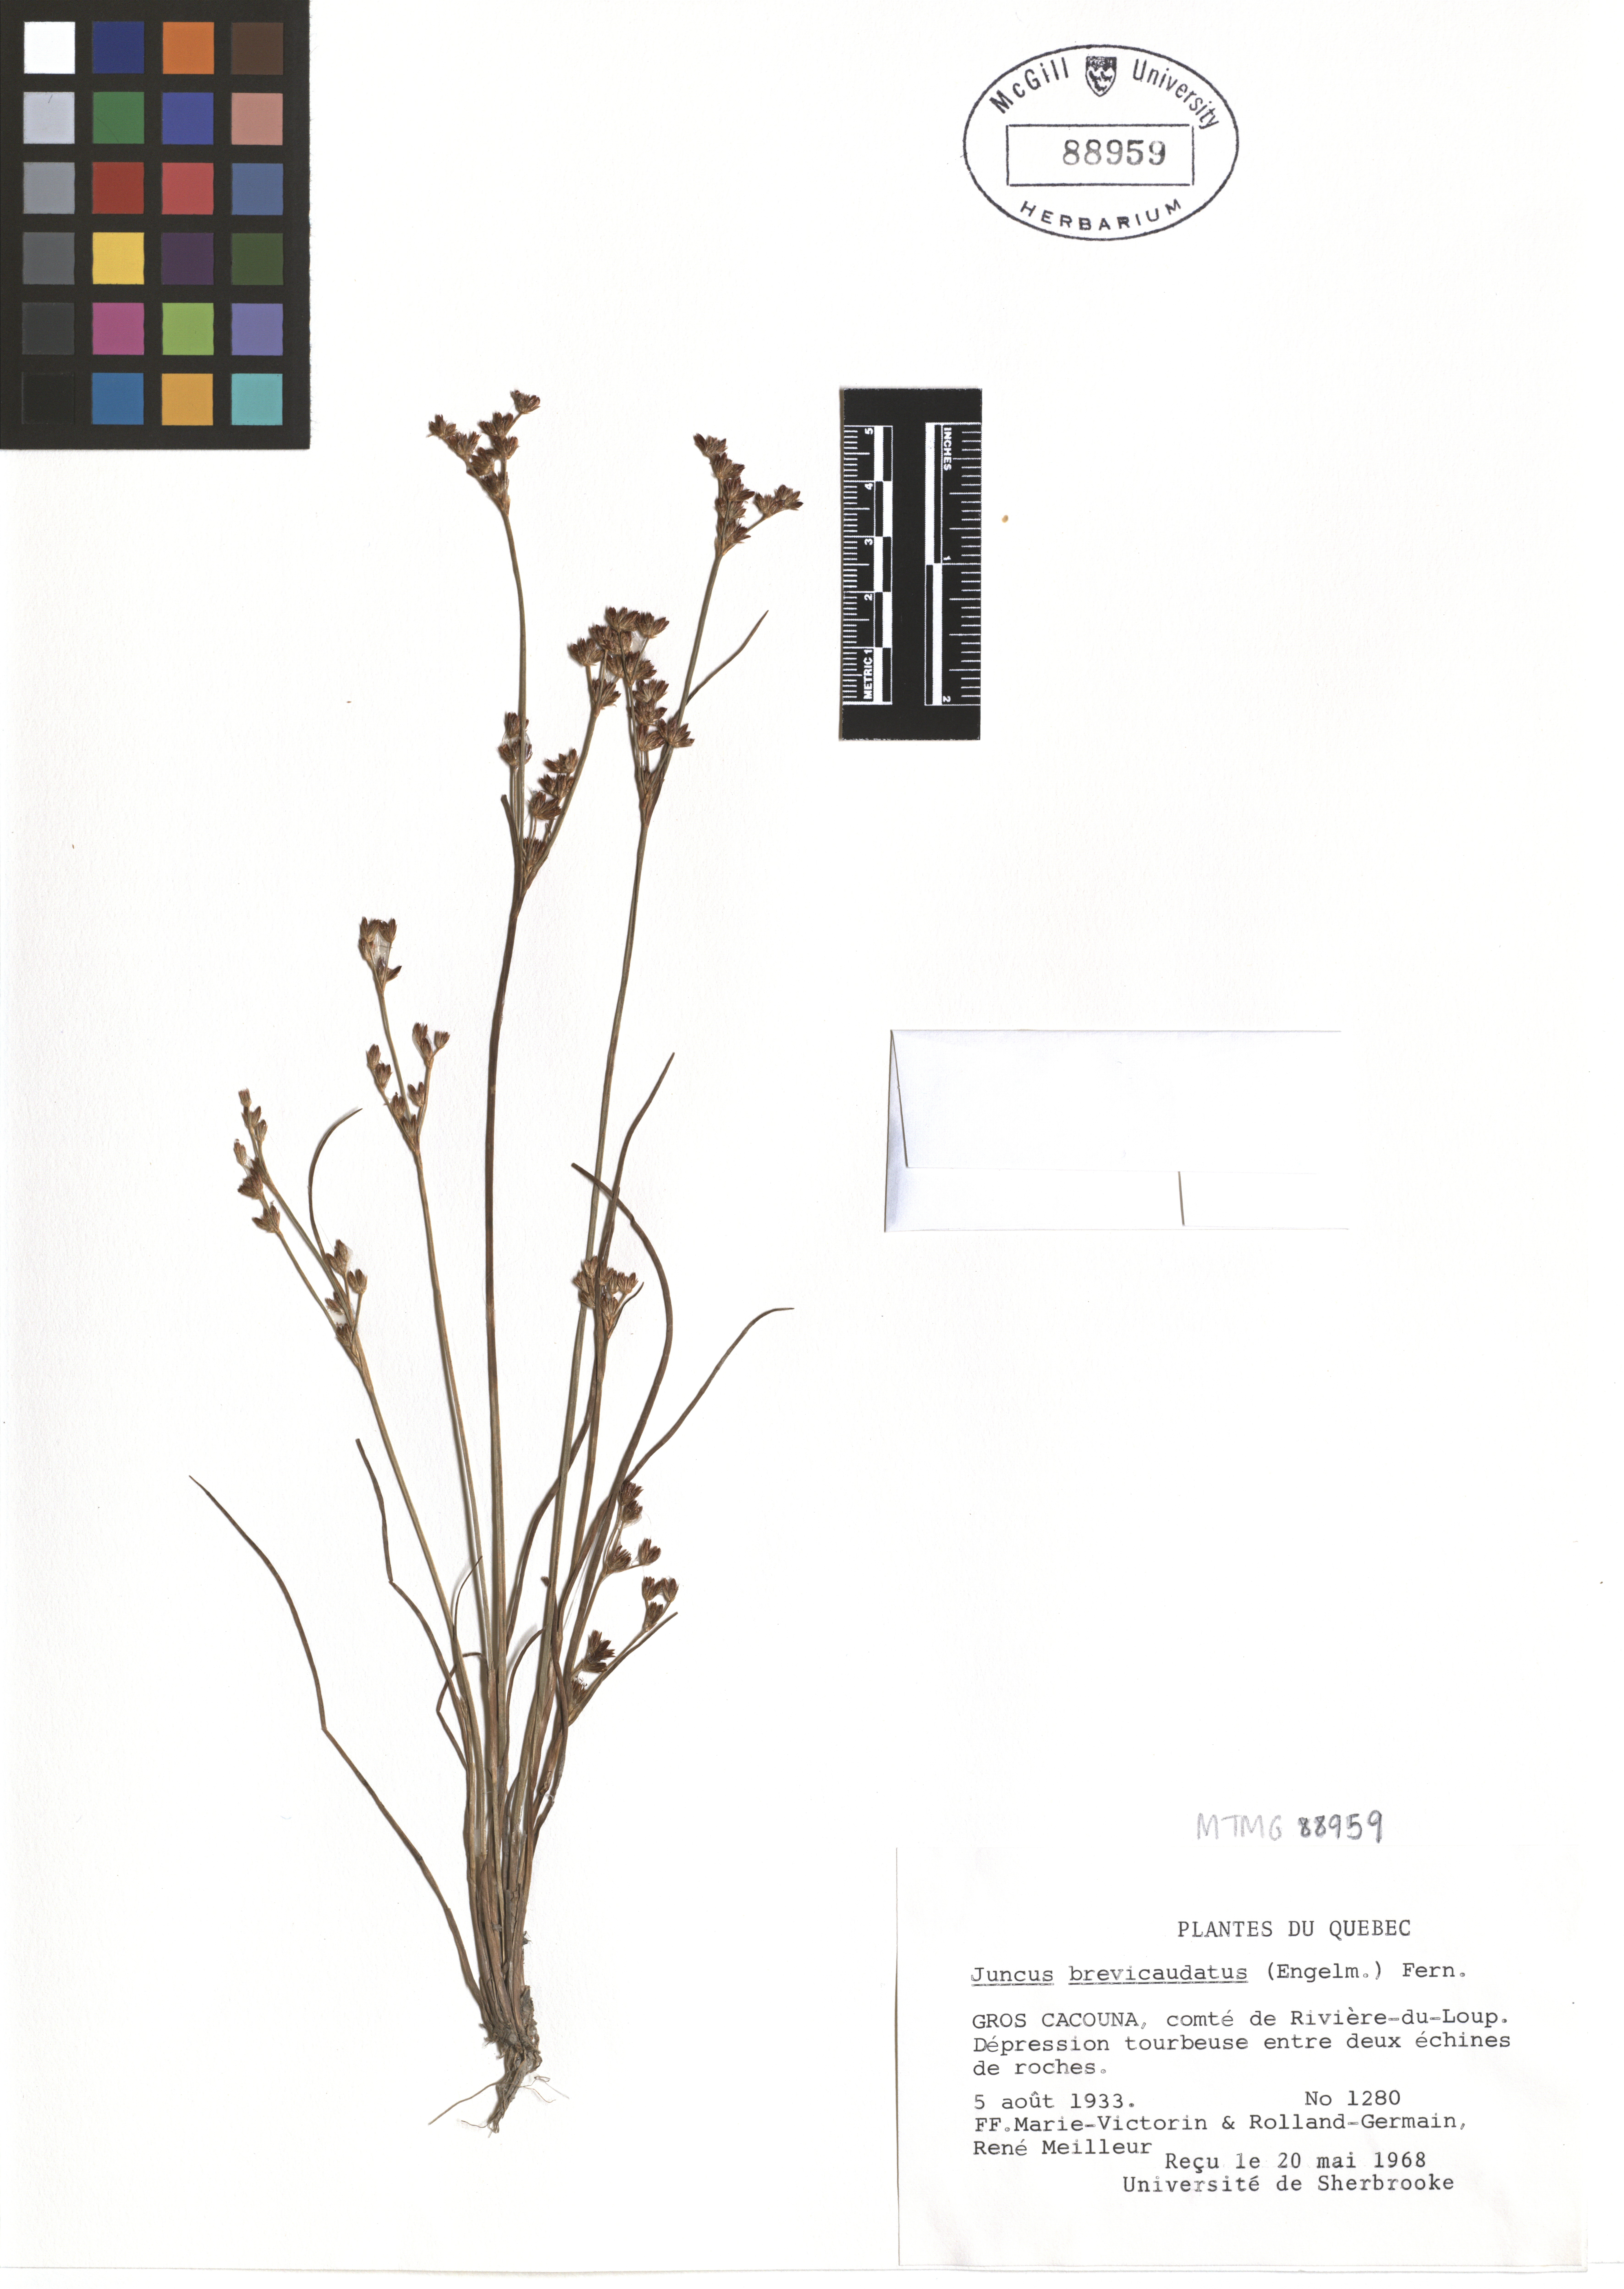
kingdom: Plantae
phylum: Tracheophyta
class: Liliopsida
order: Poales
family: Juncaceae
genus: Juncus
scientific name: Juncus brevicaudatus
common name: Narrow-panicle rush
